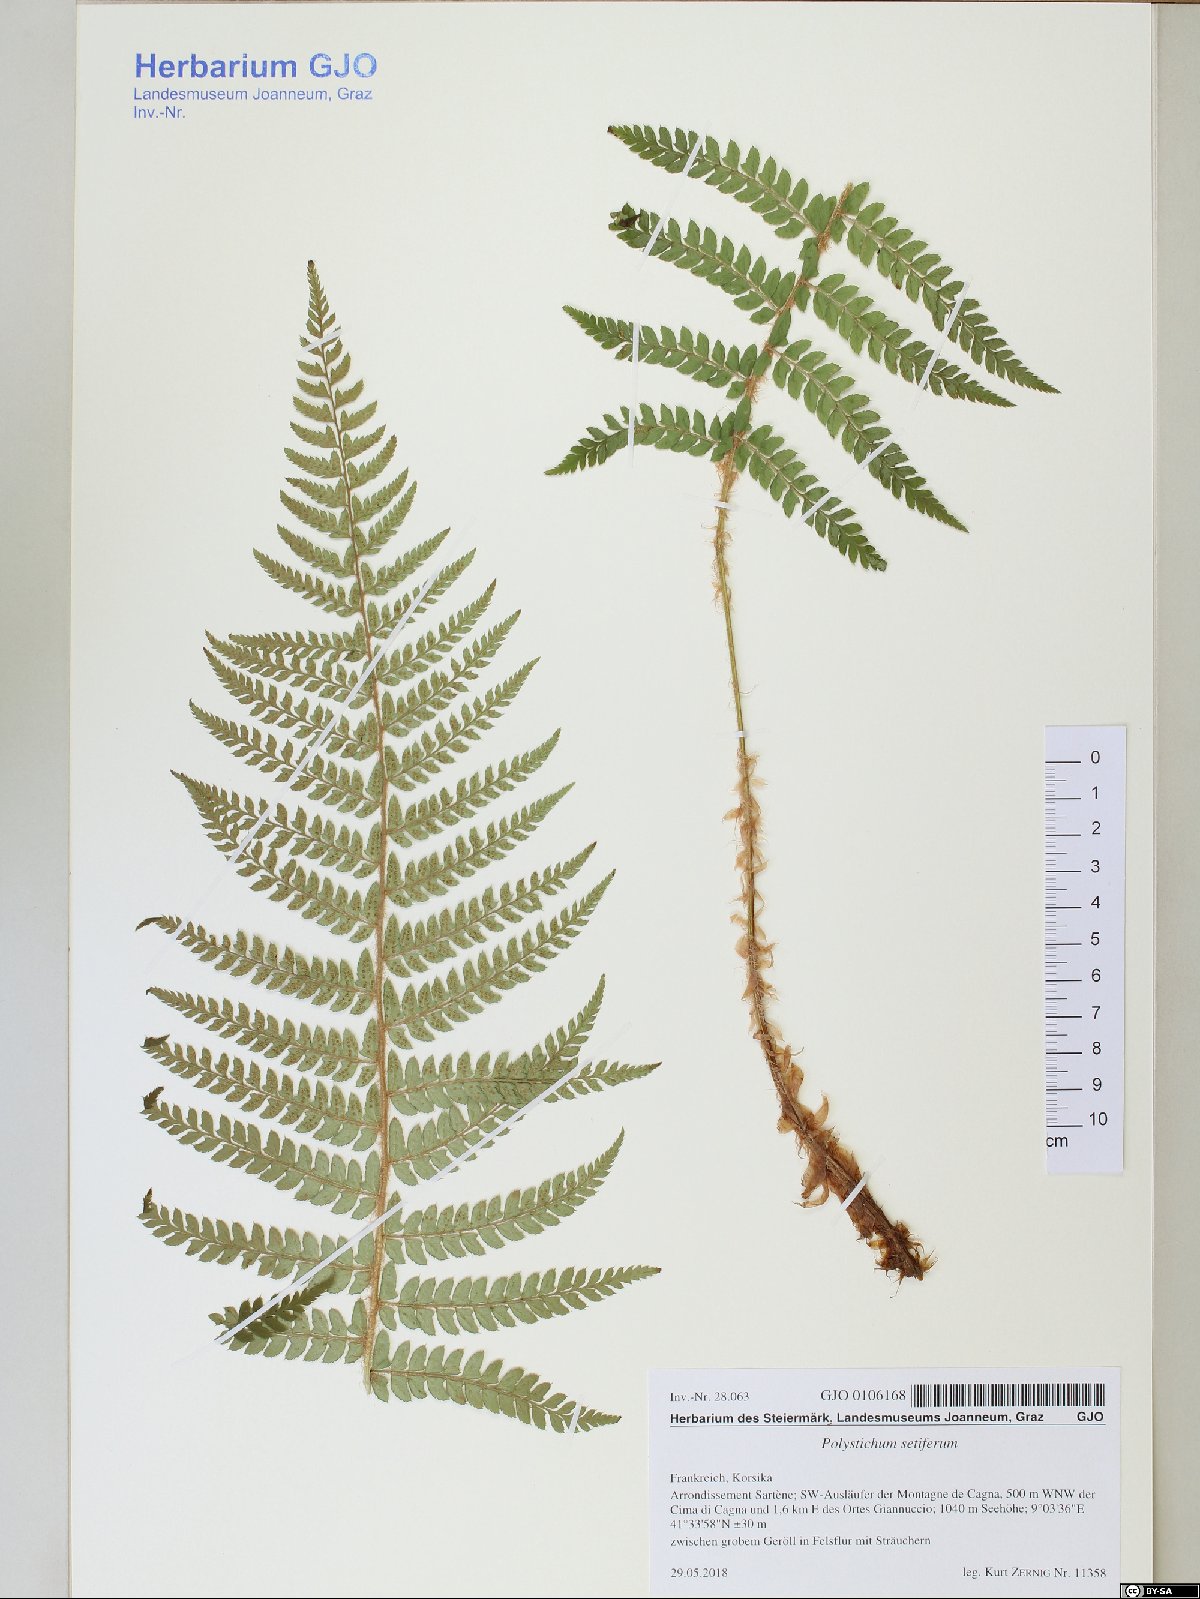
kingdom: Plantae
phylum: Tracheophyta
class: Polypodiopsida
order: Polypodiales
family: Dryopteridaceae
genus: Polystichum
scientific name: Polystichum setiferum
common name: Soft shield-fern
